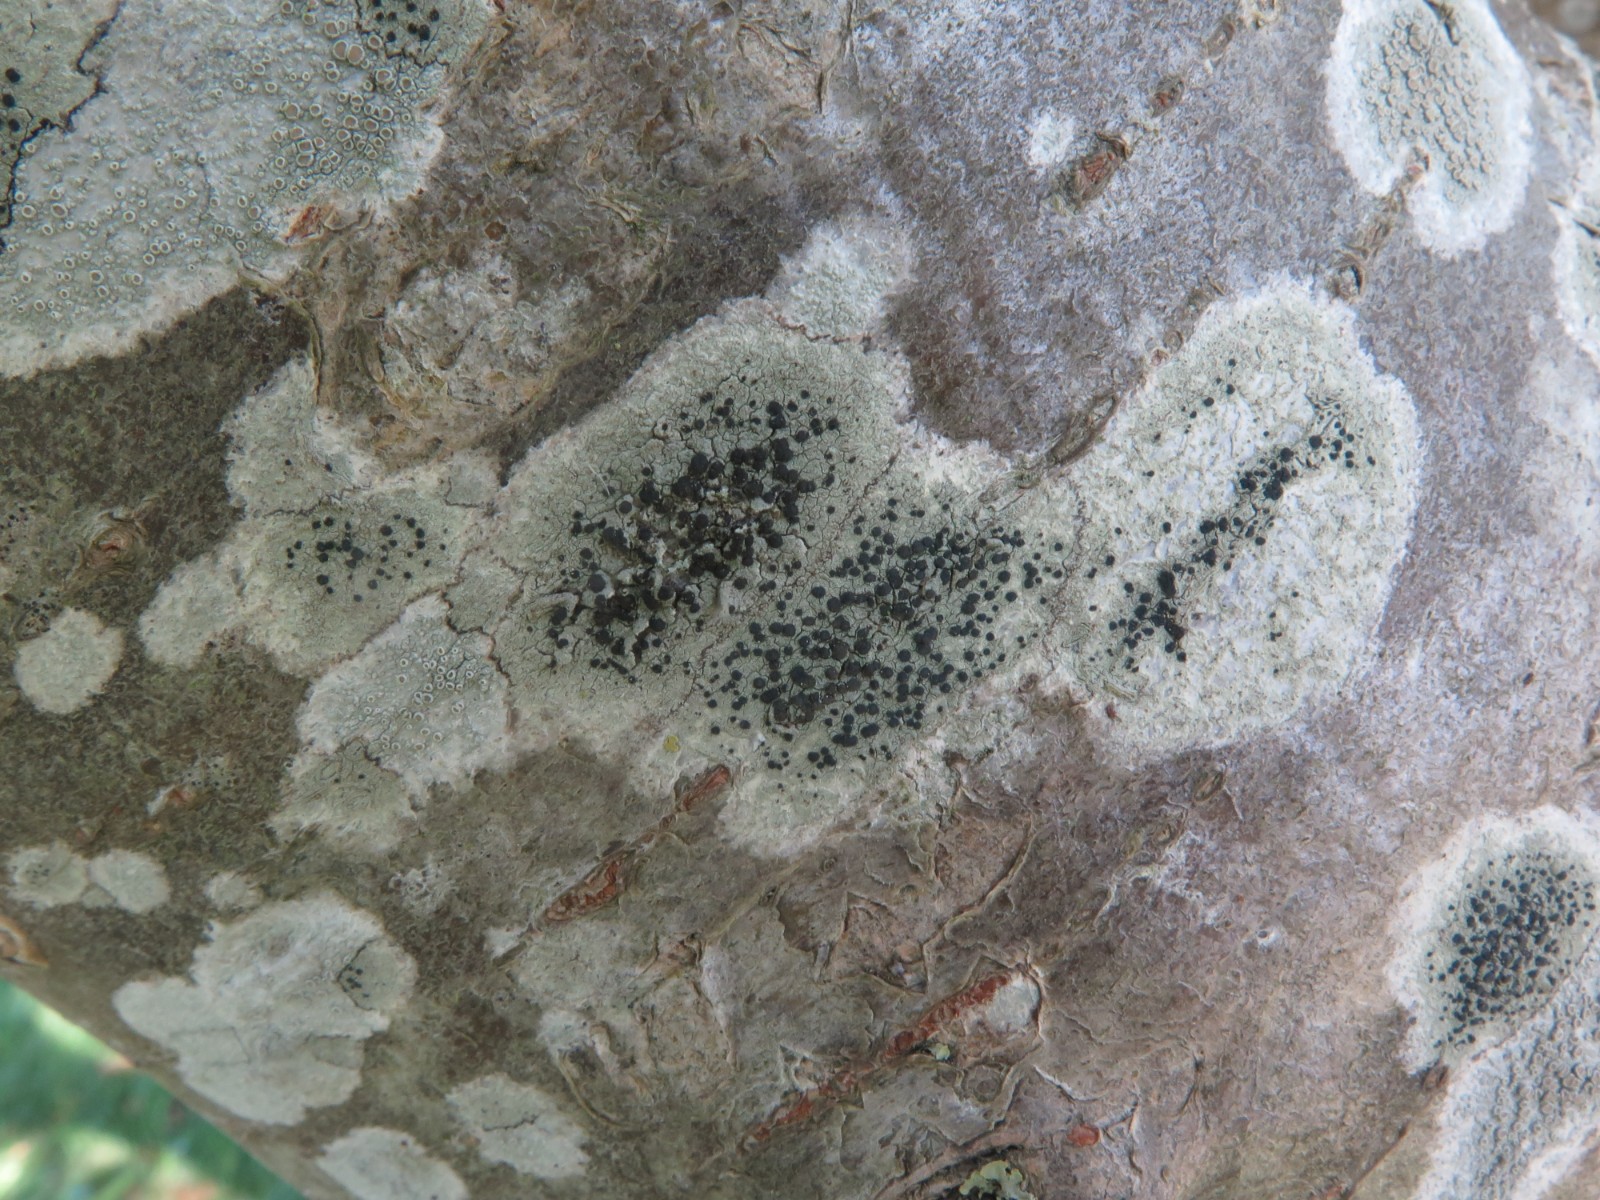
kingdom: Fungi
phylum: Ascomycota
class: Lecanoromycetes
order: Lecanorales
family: Lecanoraceae
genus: Lecidella
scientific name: Lecidella elaeochroma
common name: grågrøn skivelav
